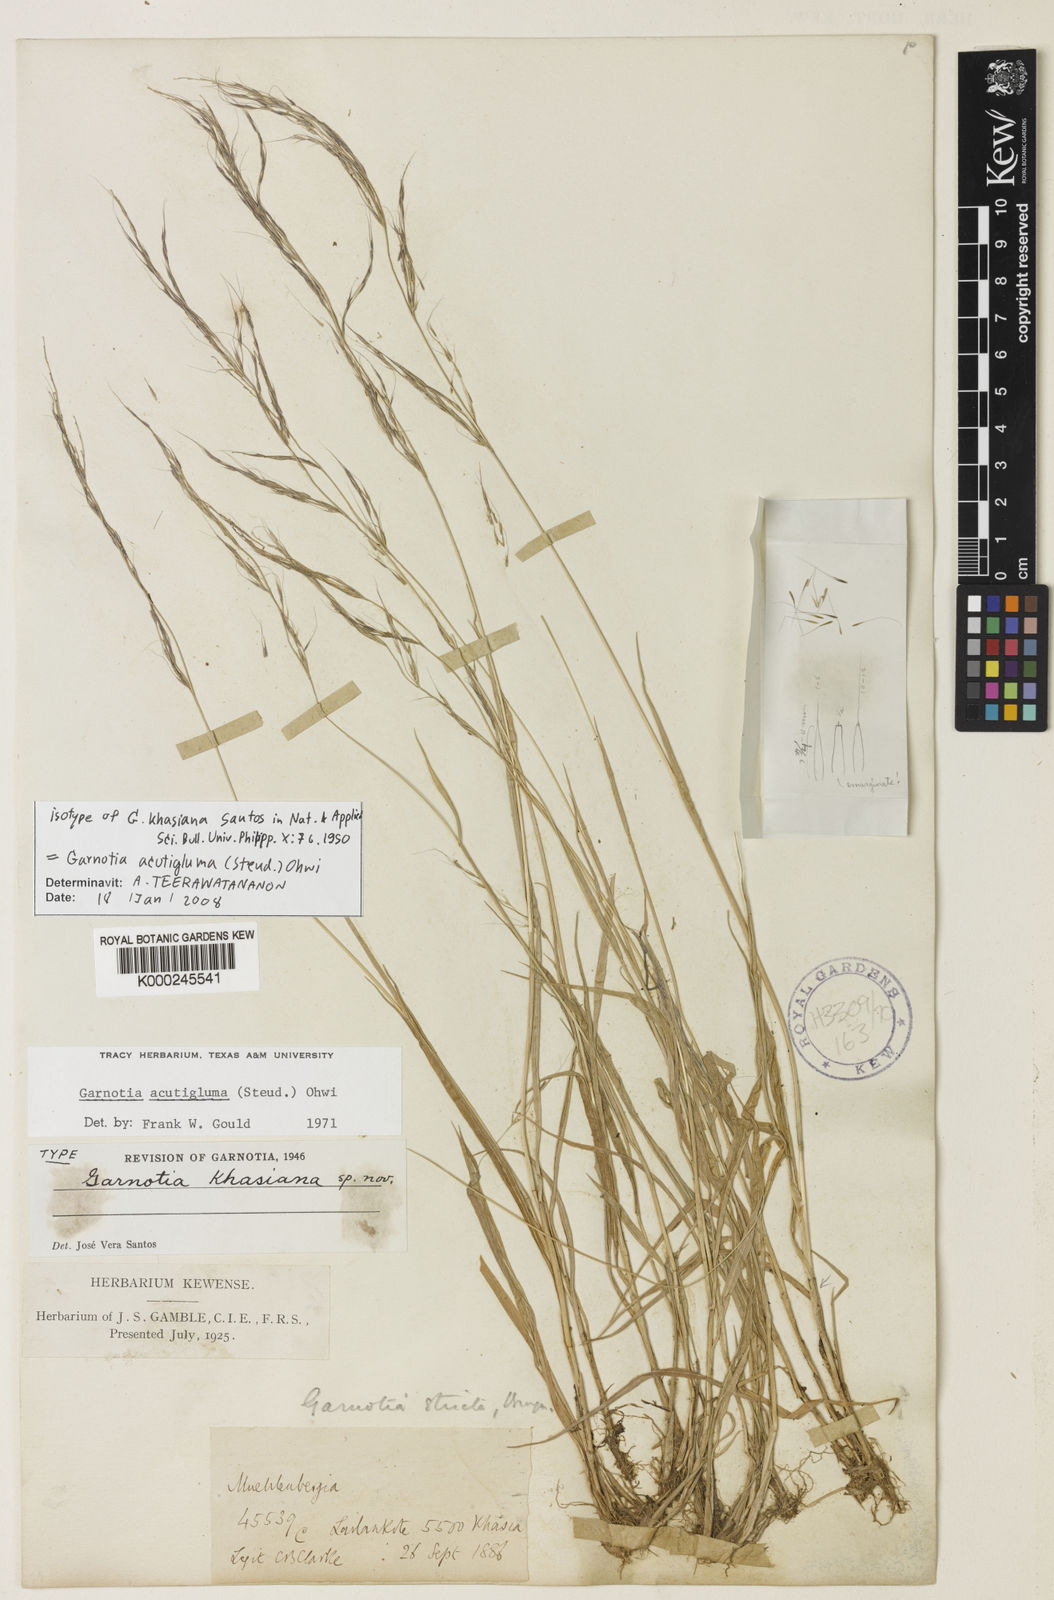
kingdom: Plantae
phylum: Tracheophyta
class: Liliopsida
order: Poales
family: Poaceae
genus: Garnotia
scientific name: Garnotia stricta
